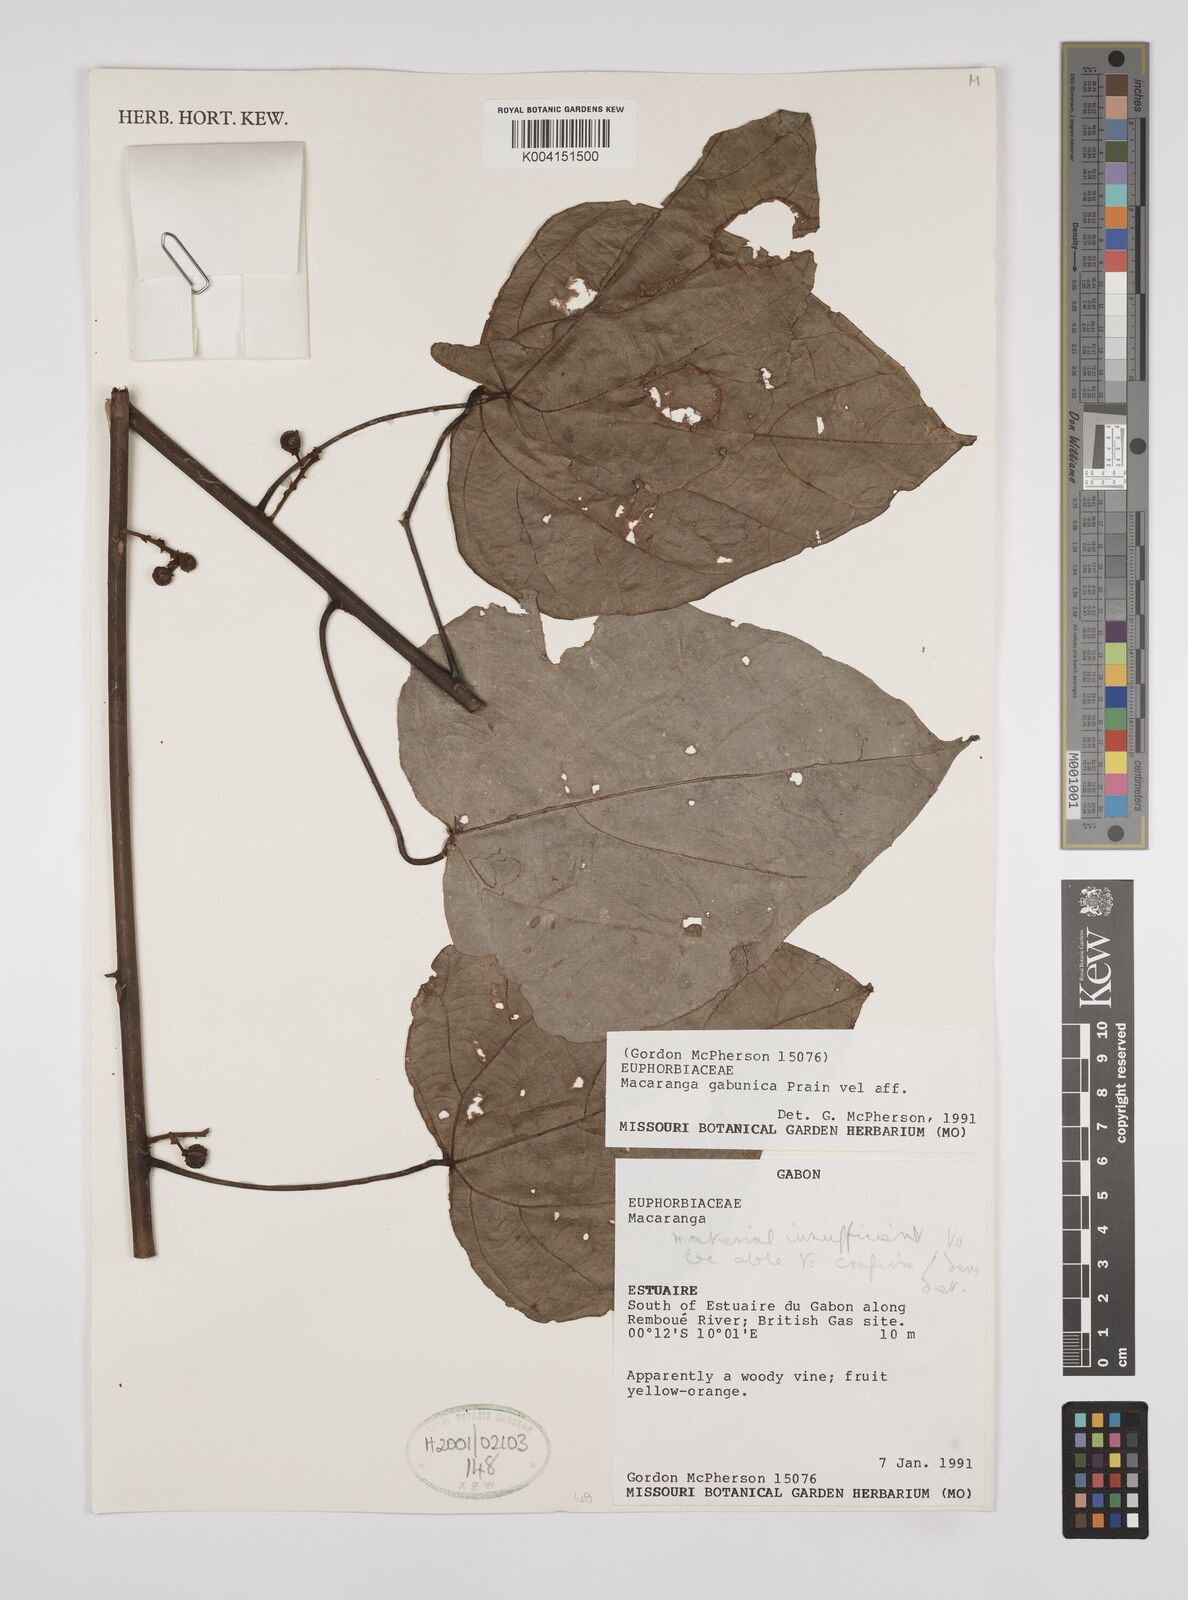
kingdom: Plantae
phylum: Tracheophyta
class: Magnoliopsida
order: Malpighiales
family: Euphorbiaceae
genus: Macaranga
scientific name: Macaranga gabunica
